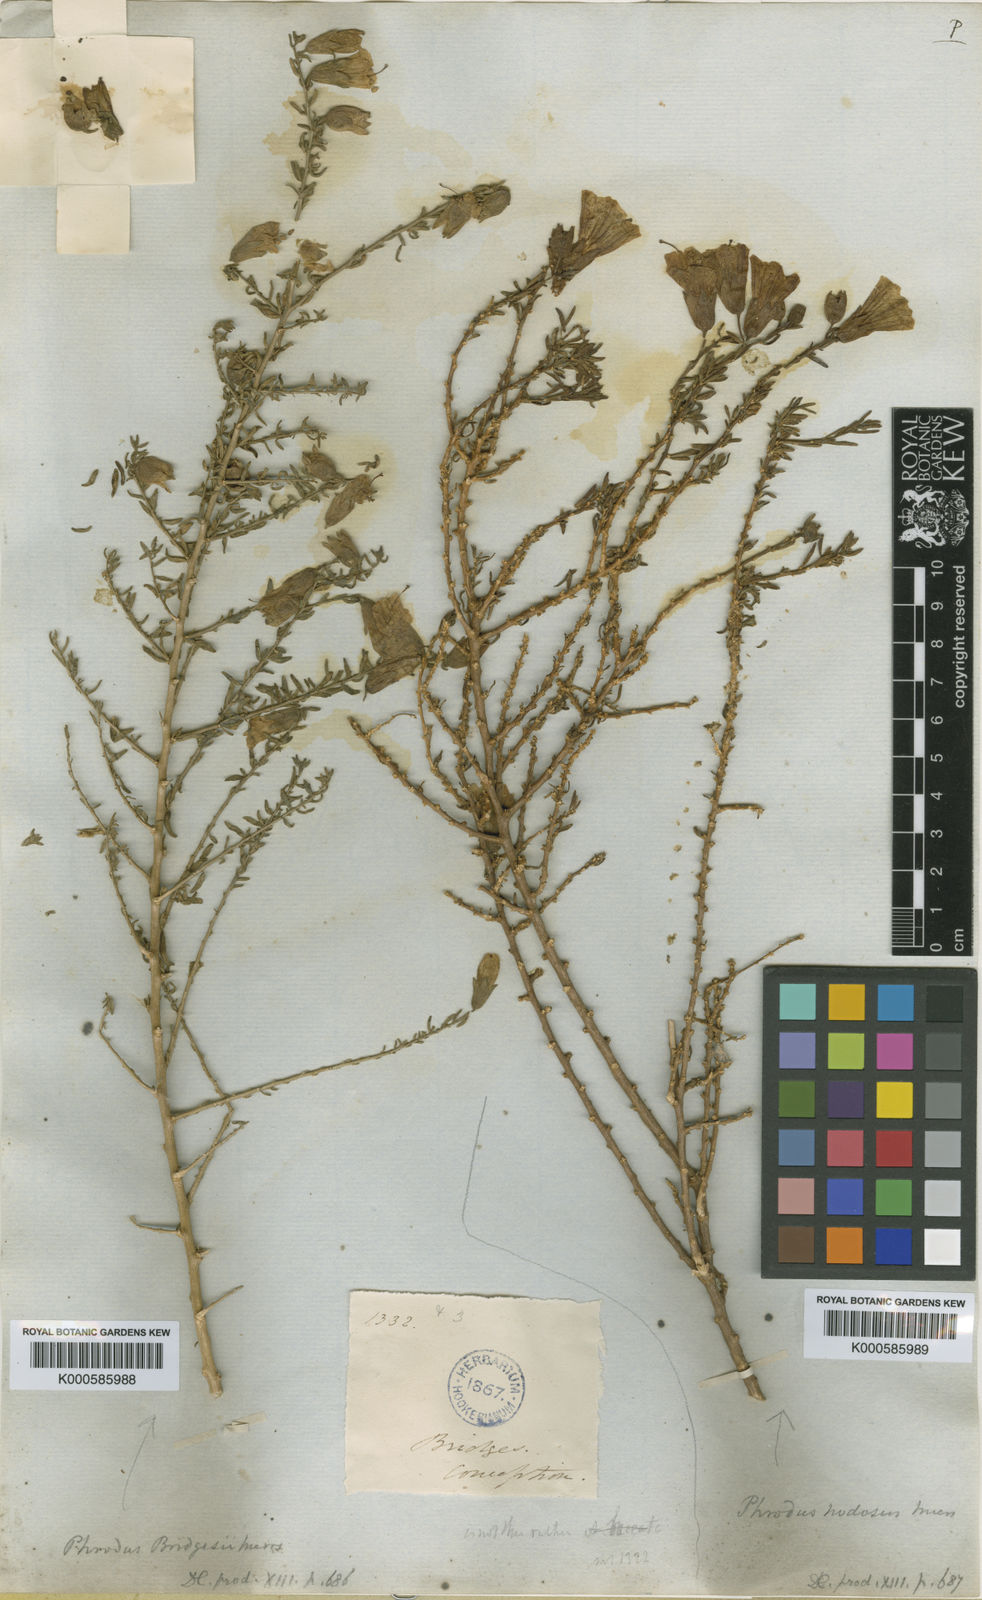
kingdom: Plantae
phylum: Tracheophyta
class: Magnoliopsida
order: Solanales
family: Solanaceae
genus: Lycium
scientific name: Lycium bridgesii
